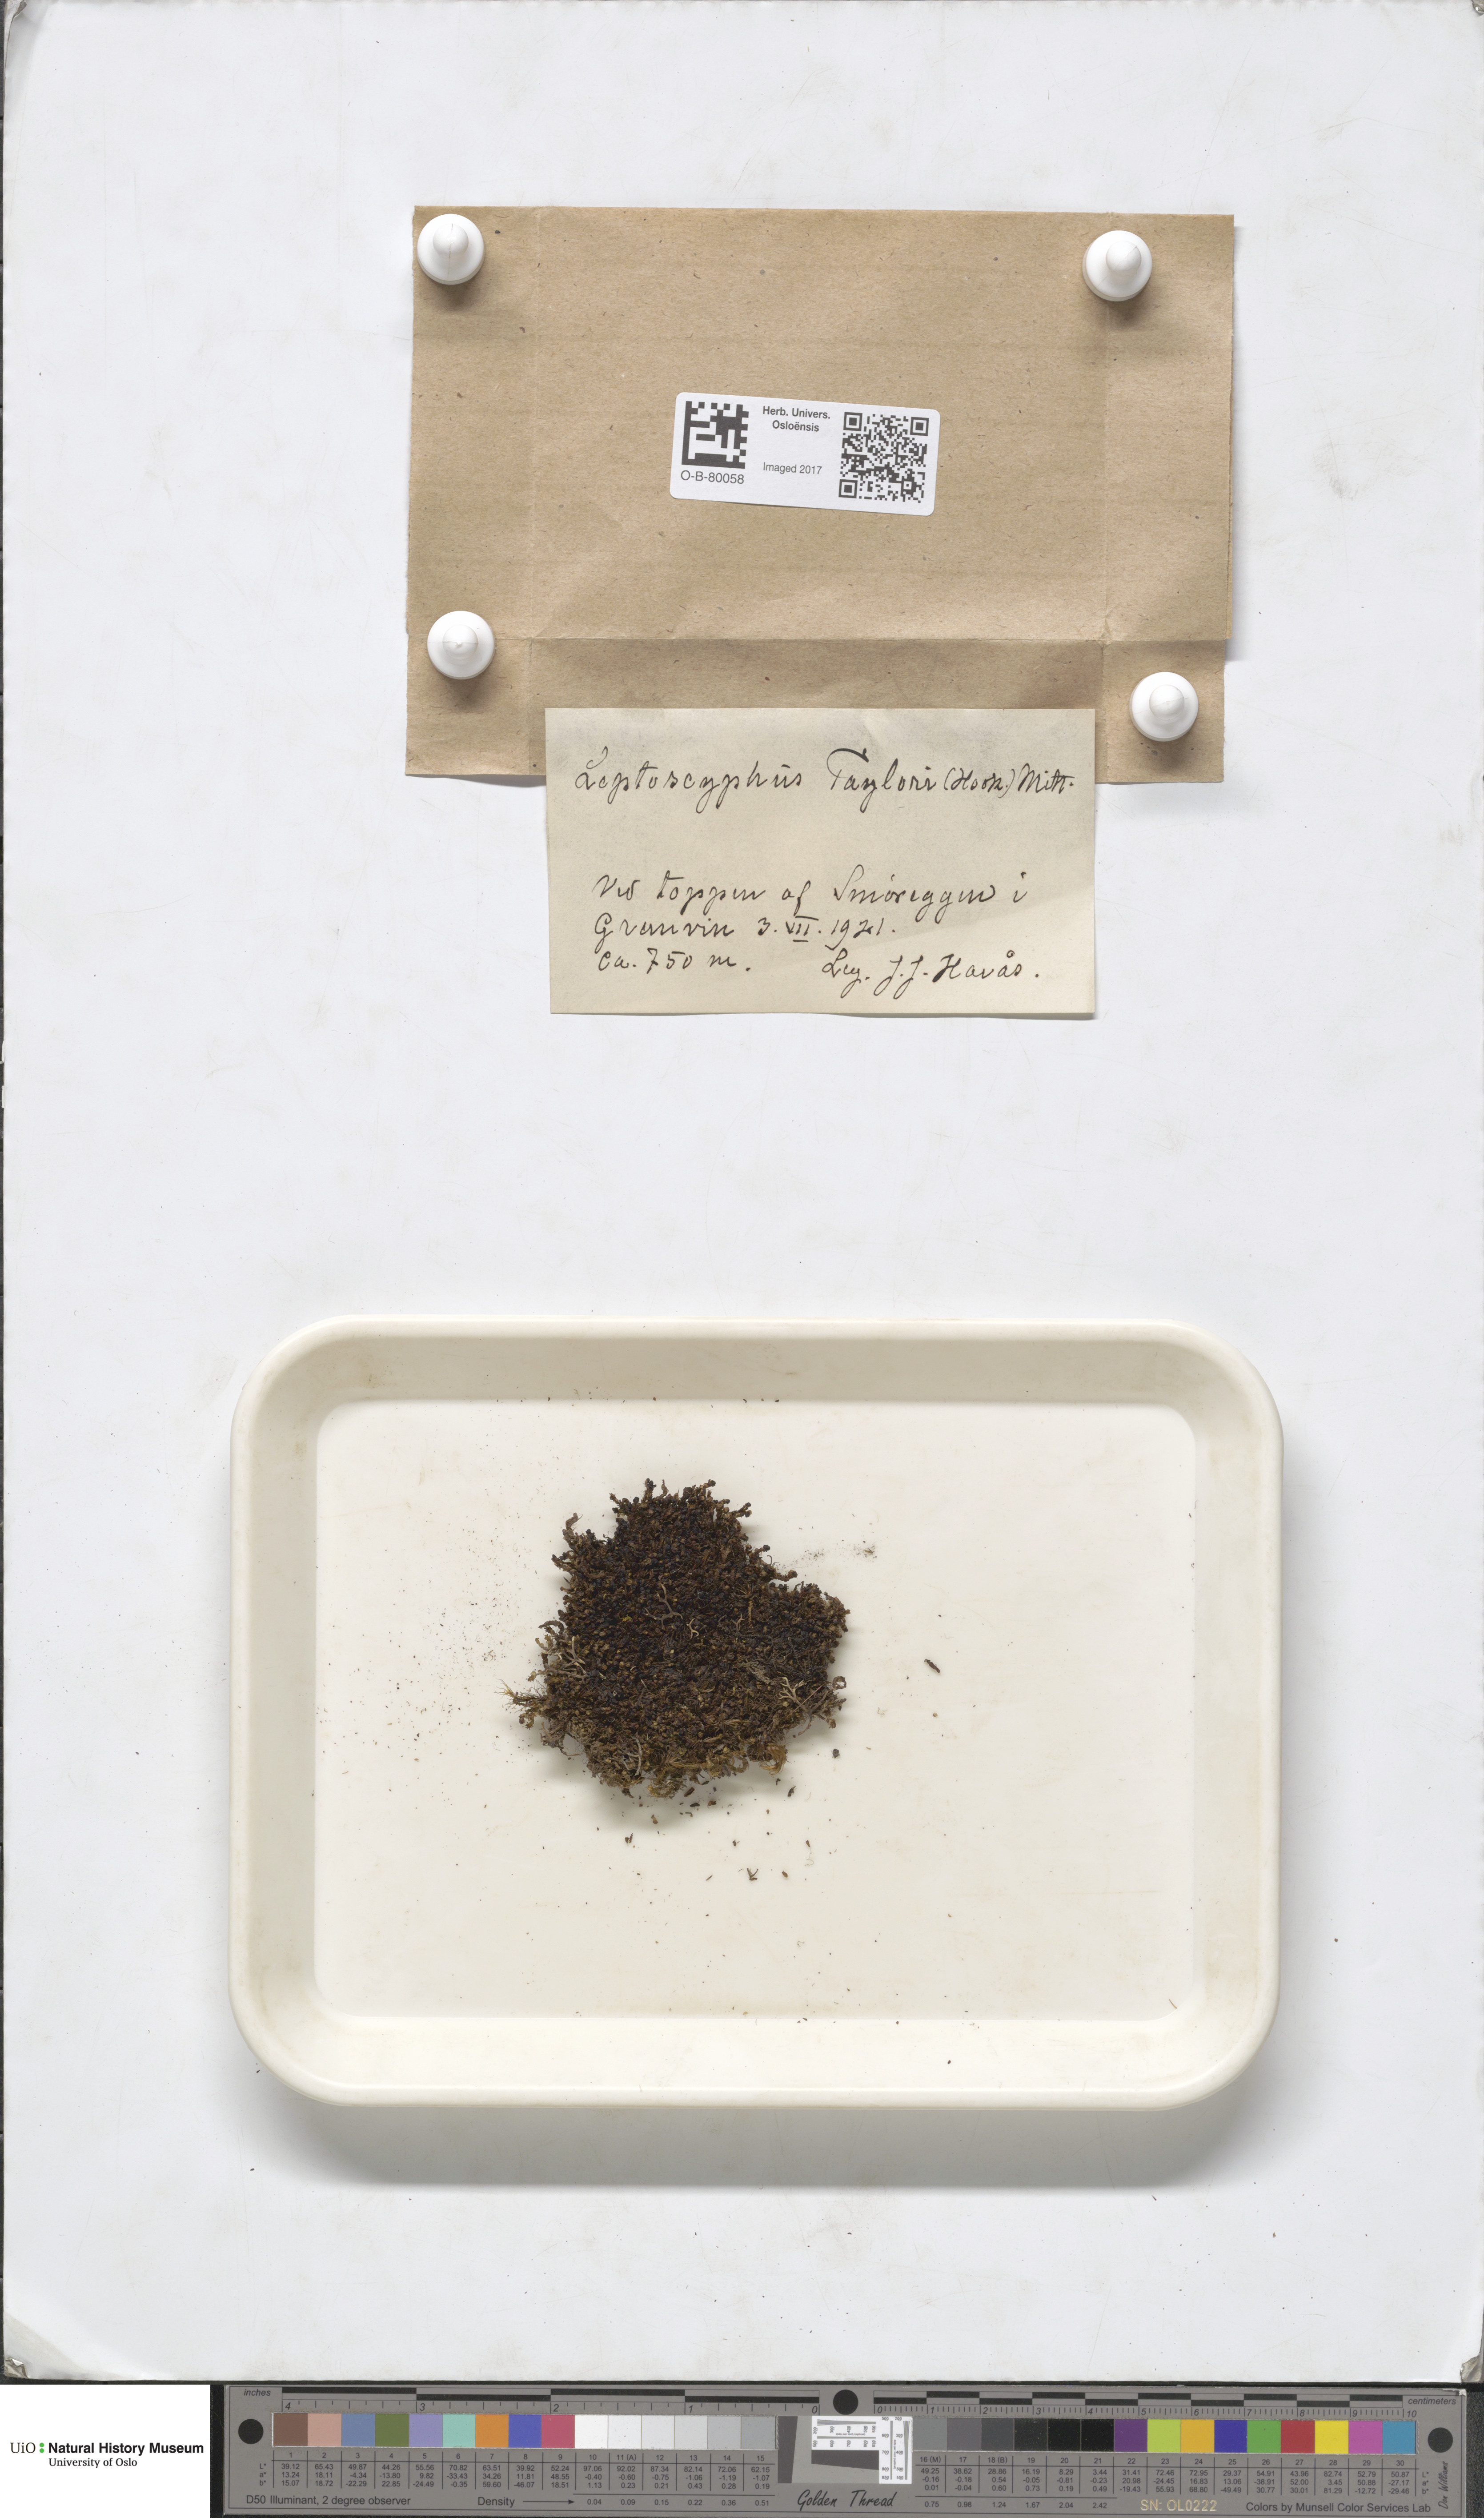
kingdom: Plantae
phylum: Marchantiophyta
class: Jungermanniopsida
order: Jungermanniales
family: Myliaceae
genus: Mylia
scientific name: Mylia taylorii
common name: Taylor s flapwort
